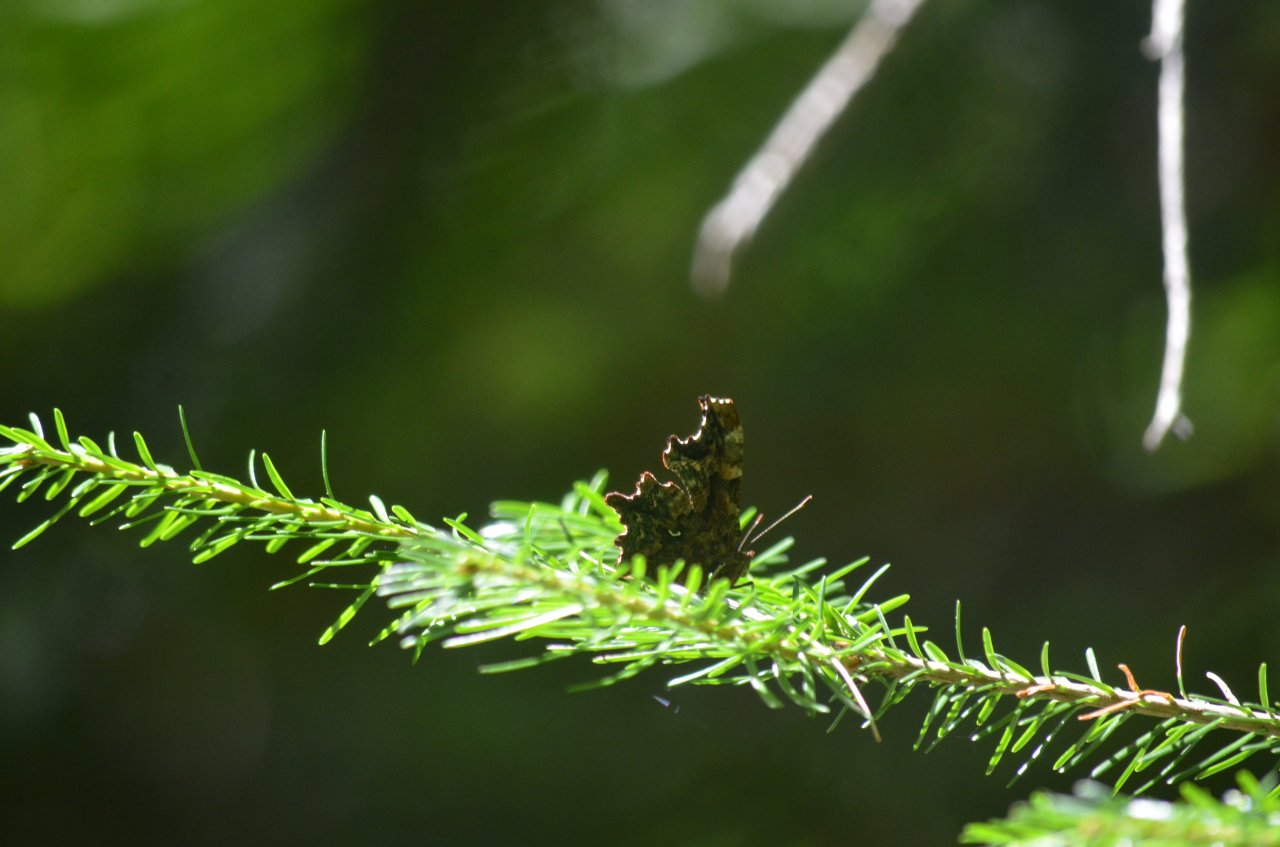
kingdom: Animalia
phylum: Arthropoda
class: Insecta
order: Lepidoptera
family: Nymphalidae
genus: Polygonia
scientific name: Polygonia faunus
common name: Green Comma
